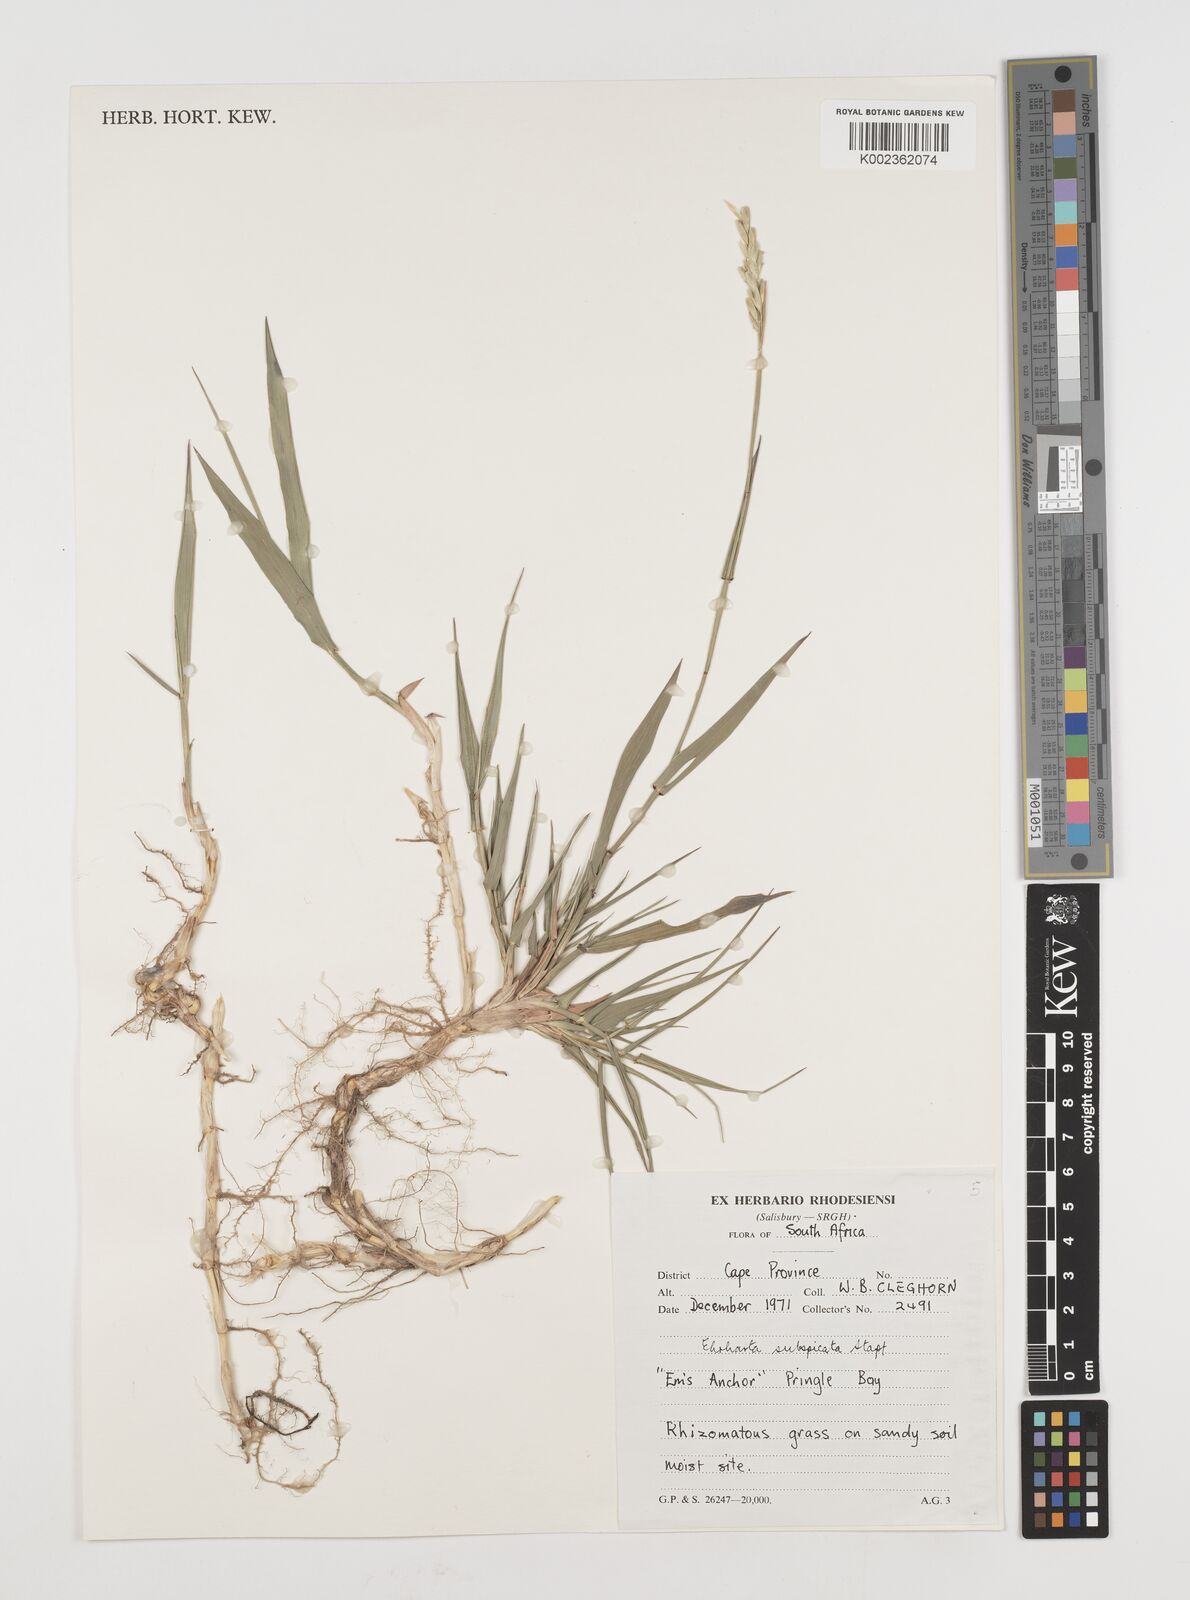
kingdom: Plantae
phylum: Tracheophyta
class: Liliopsida
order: Poales
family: Poaceae
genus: Ehrharta
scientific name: Ehrharta rehmannii
